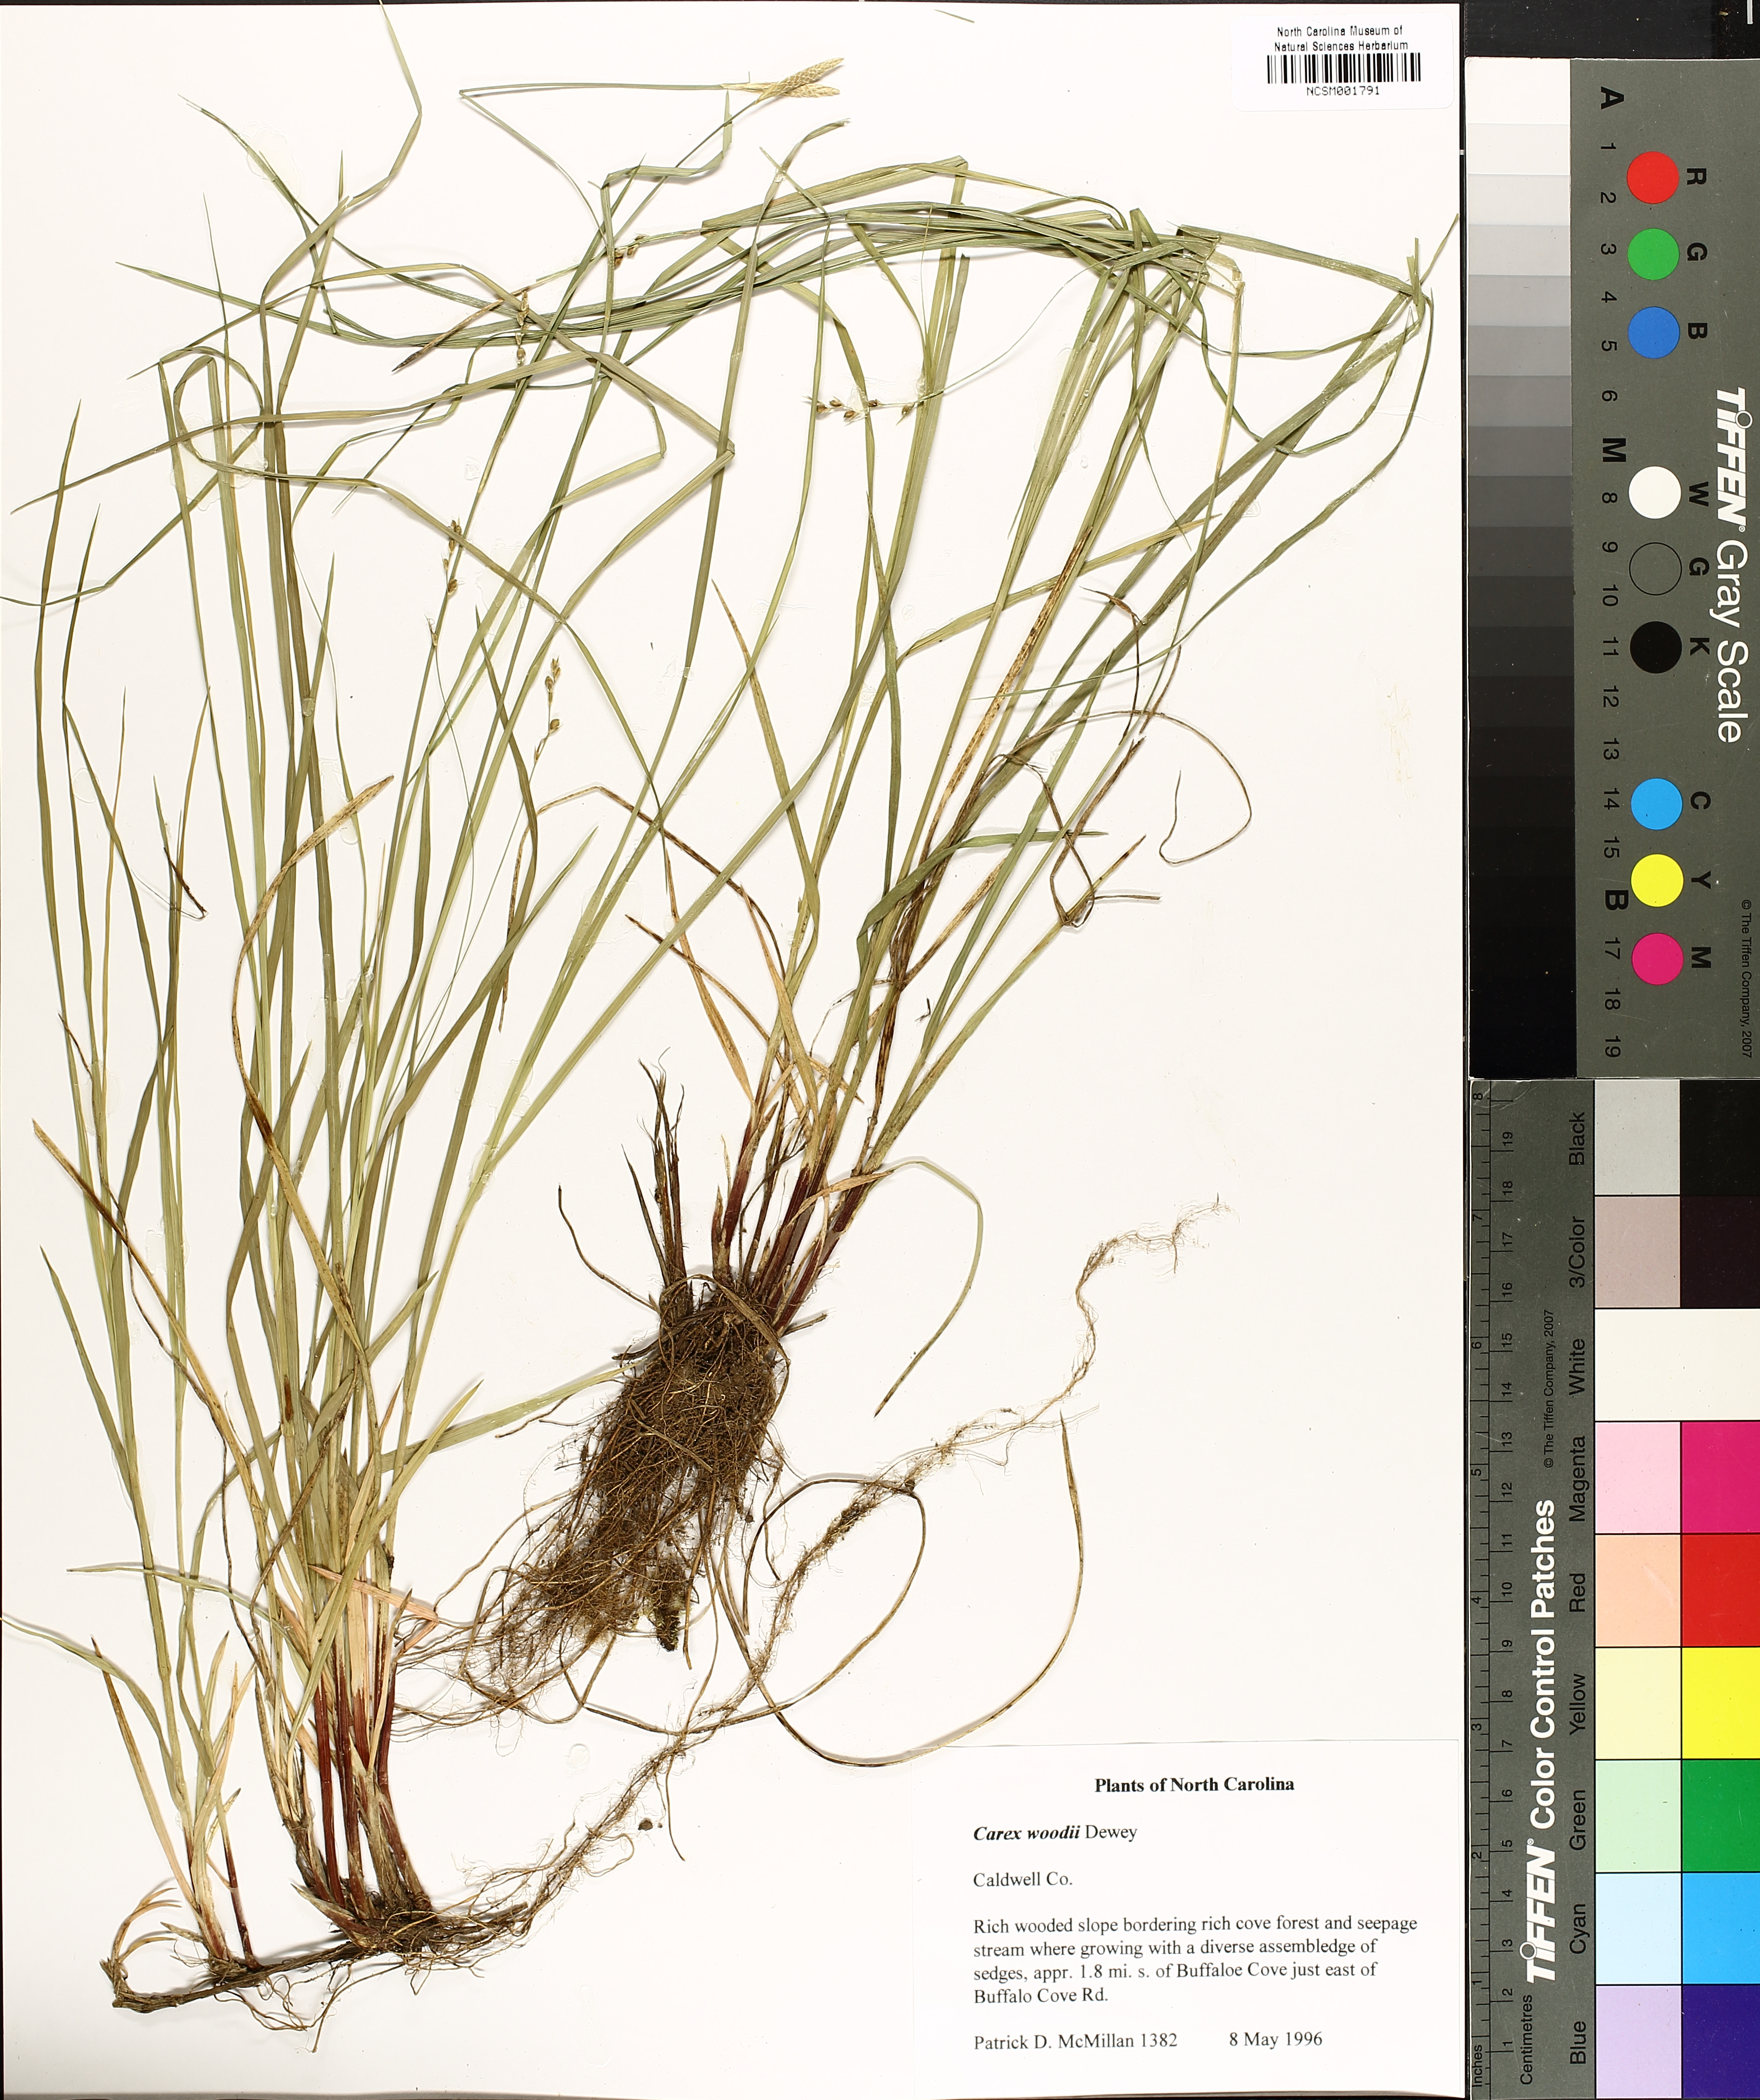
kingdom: Plantae
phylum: Tracheophyta
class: Liliopsida
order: Poales
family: Cyperaceae
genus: Carex
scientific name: Carex woodii
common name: Wood's sedge
